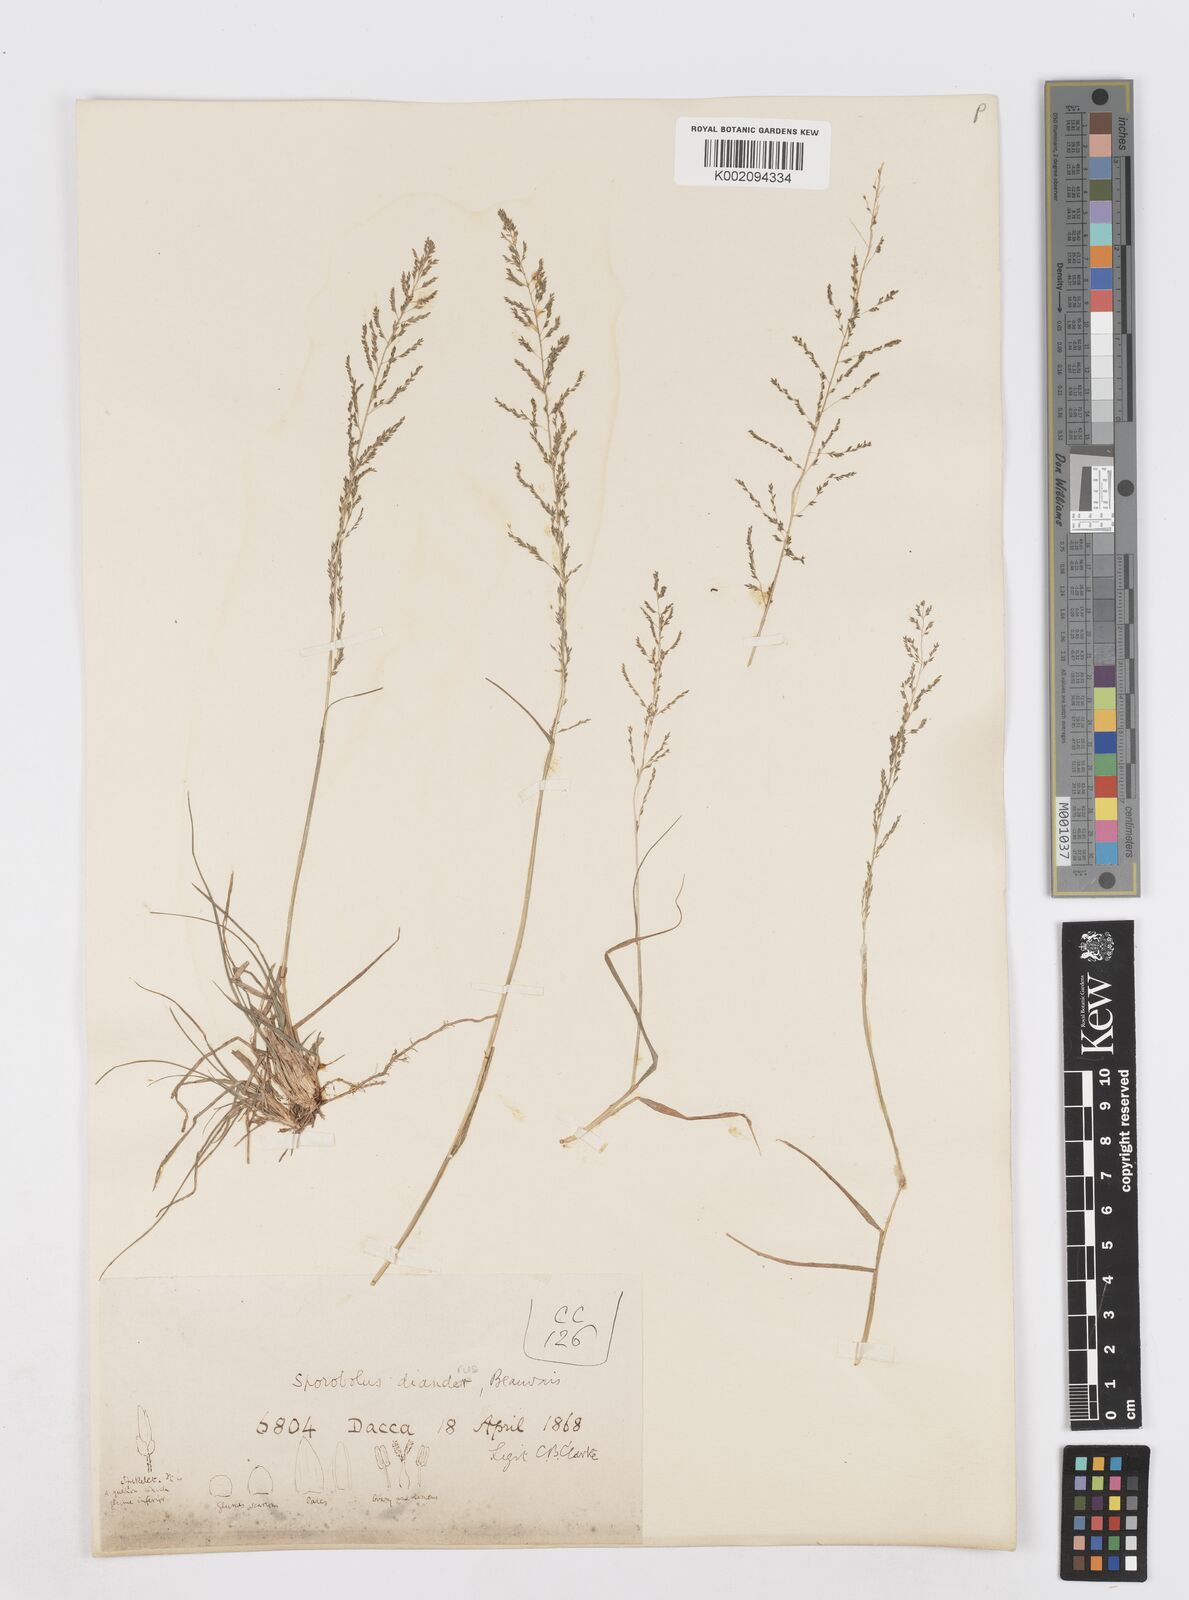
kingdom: Plantae
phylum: Tracheophyta
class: Liliopsida
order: Poales
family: Poaceae
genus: Sporobolus
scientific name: Sporobolus diandrus
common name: Tussock dropseed
